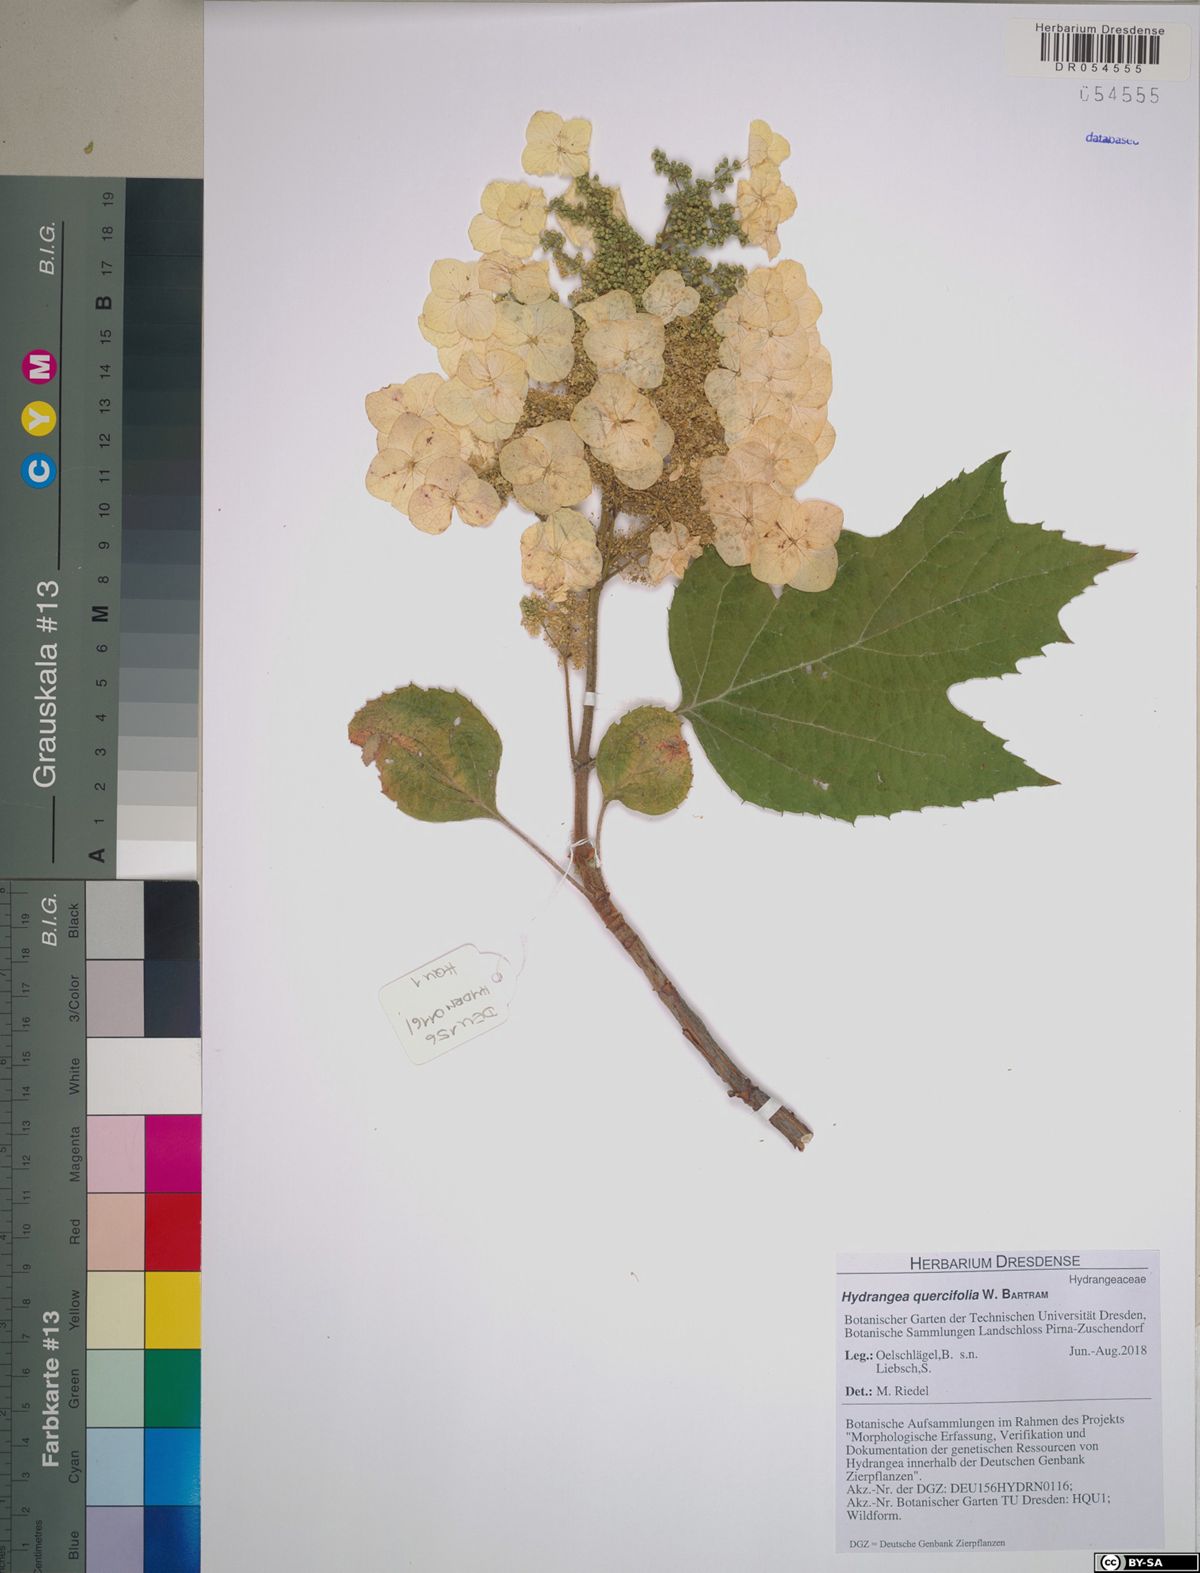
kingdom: Plantae
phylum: Tracheophyta
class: Magnoliopsida
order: Cornales
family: Hydrangeaceae
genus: Hydrangea
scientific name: Hydrangea quercifolia
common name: Oak-leaf hydrangea
